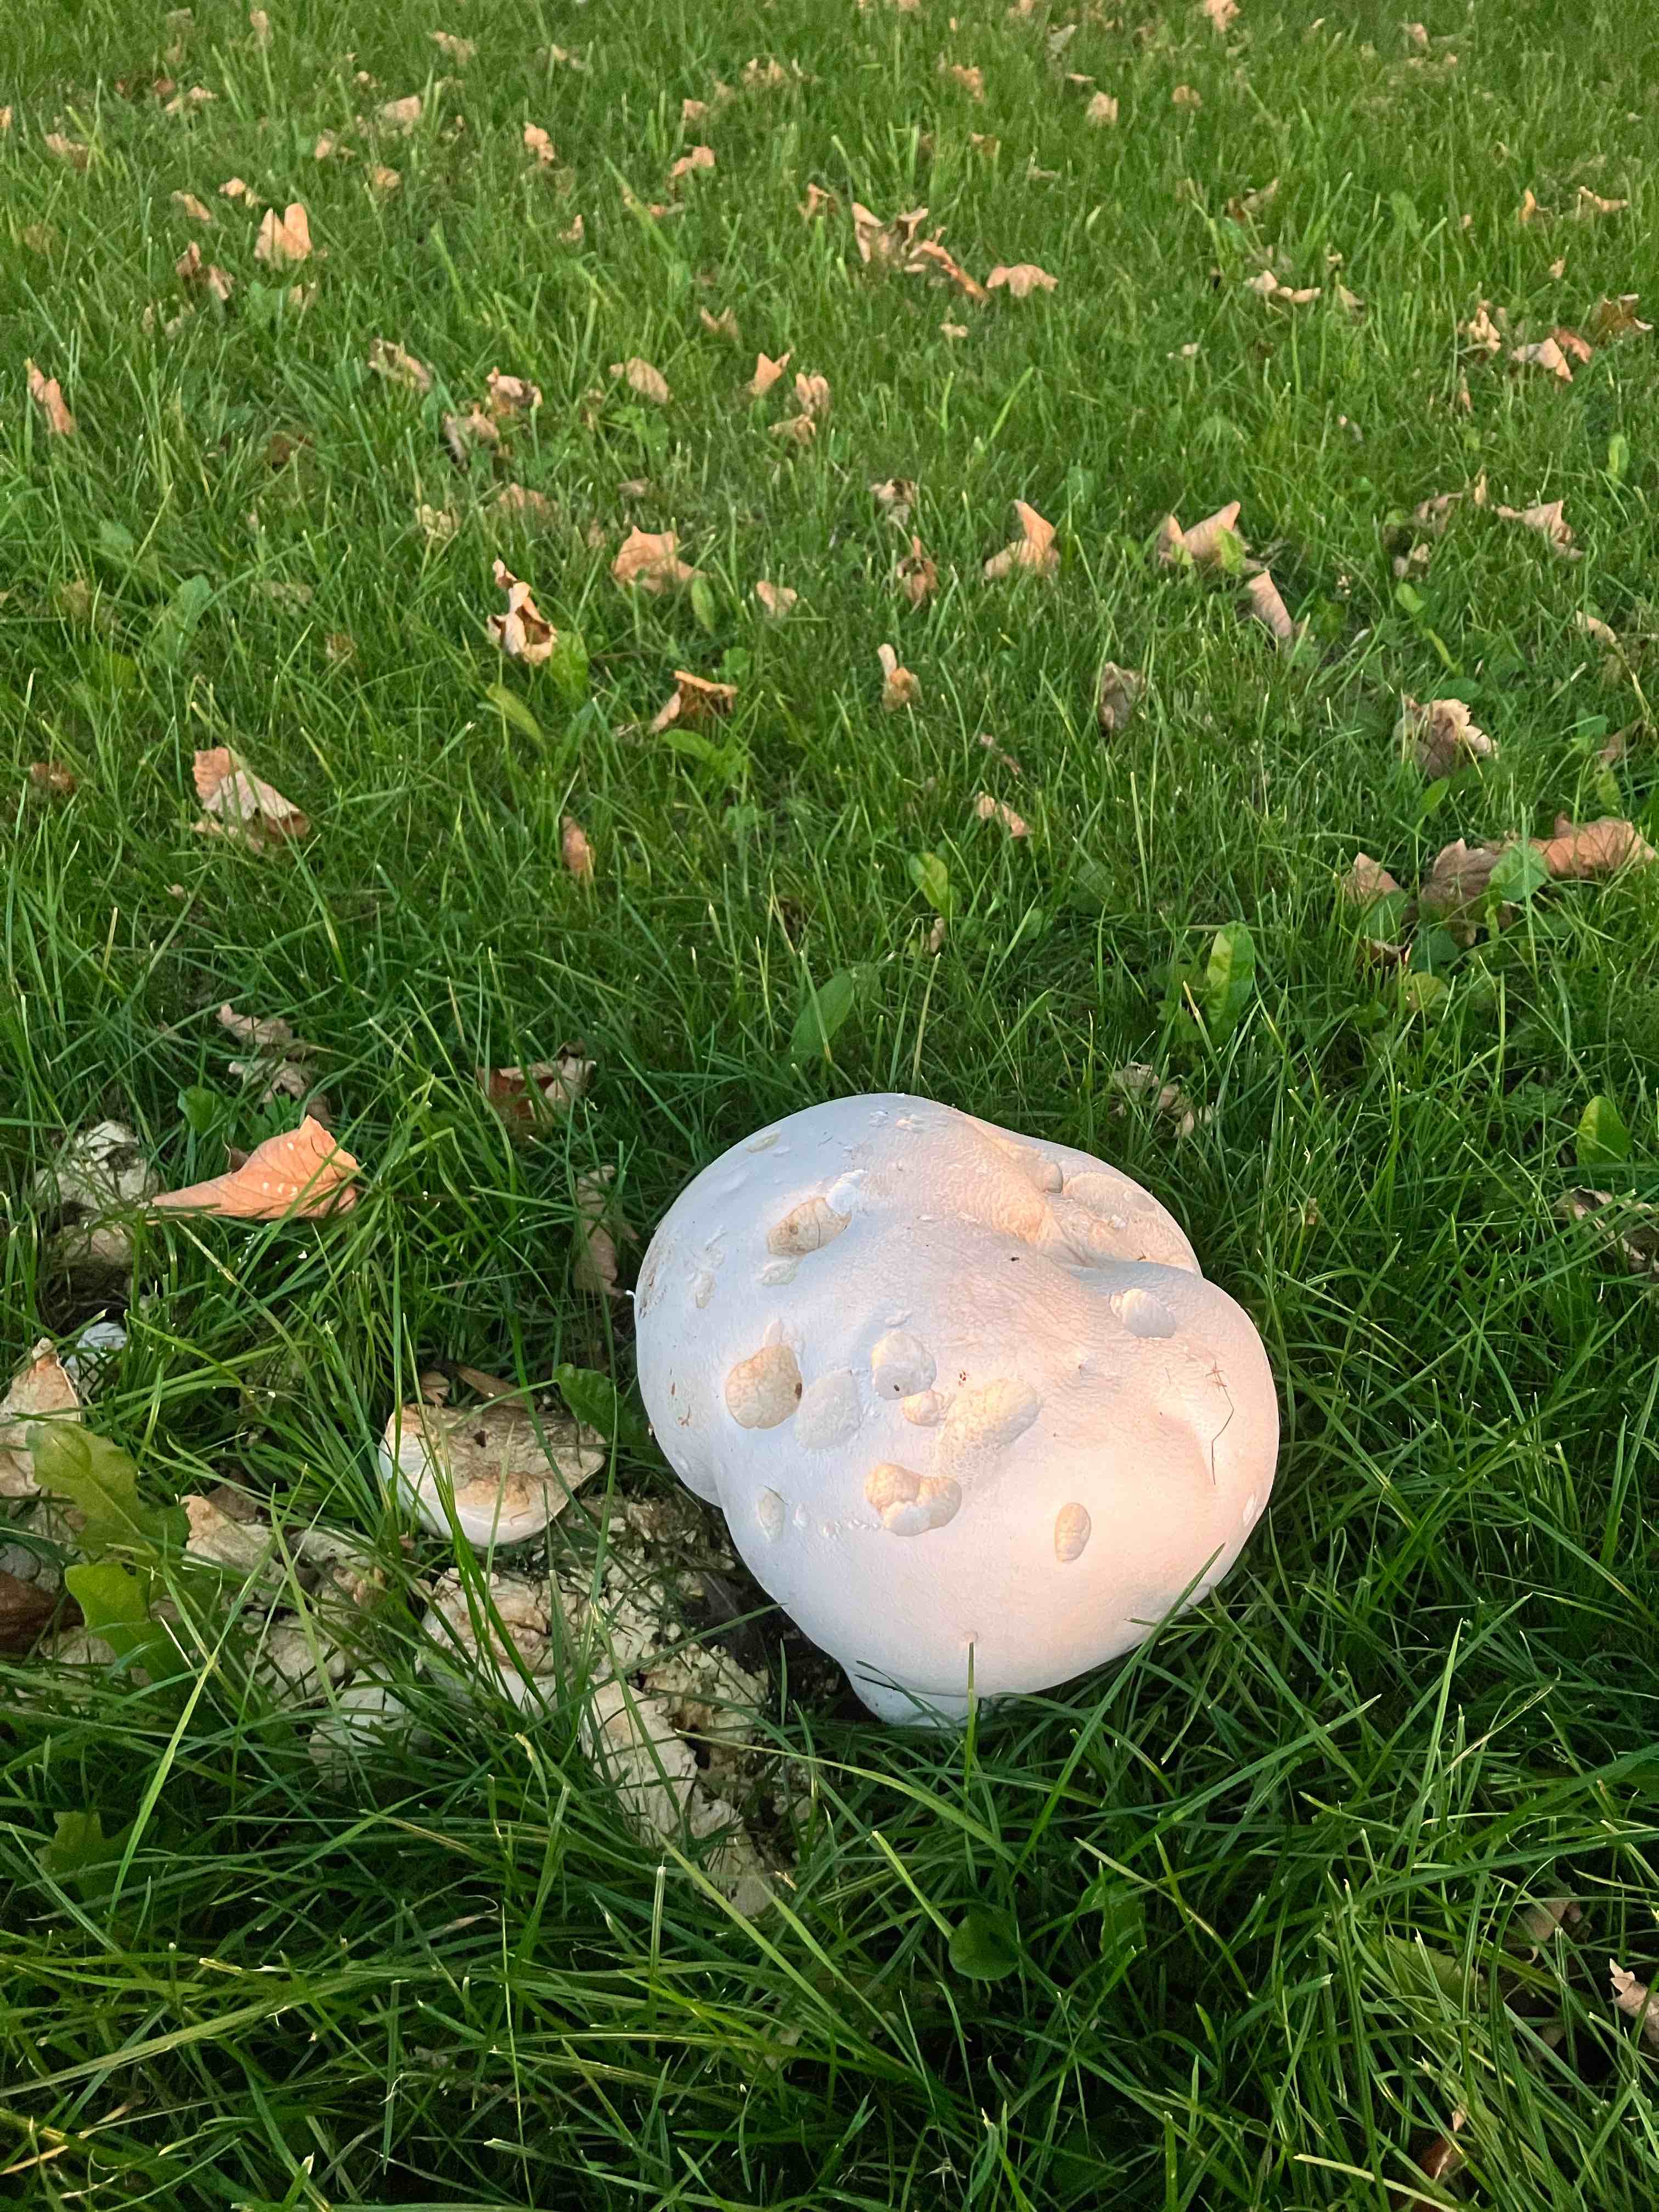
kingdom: Fungi
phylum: Basidiomycota
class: Agaricomycetes
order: Agaricales
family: Lycoperdaceae
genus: Calvatia
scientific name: Calvatia gigantea
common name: kæmpestøvbold
